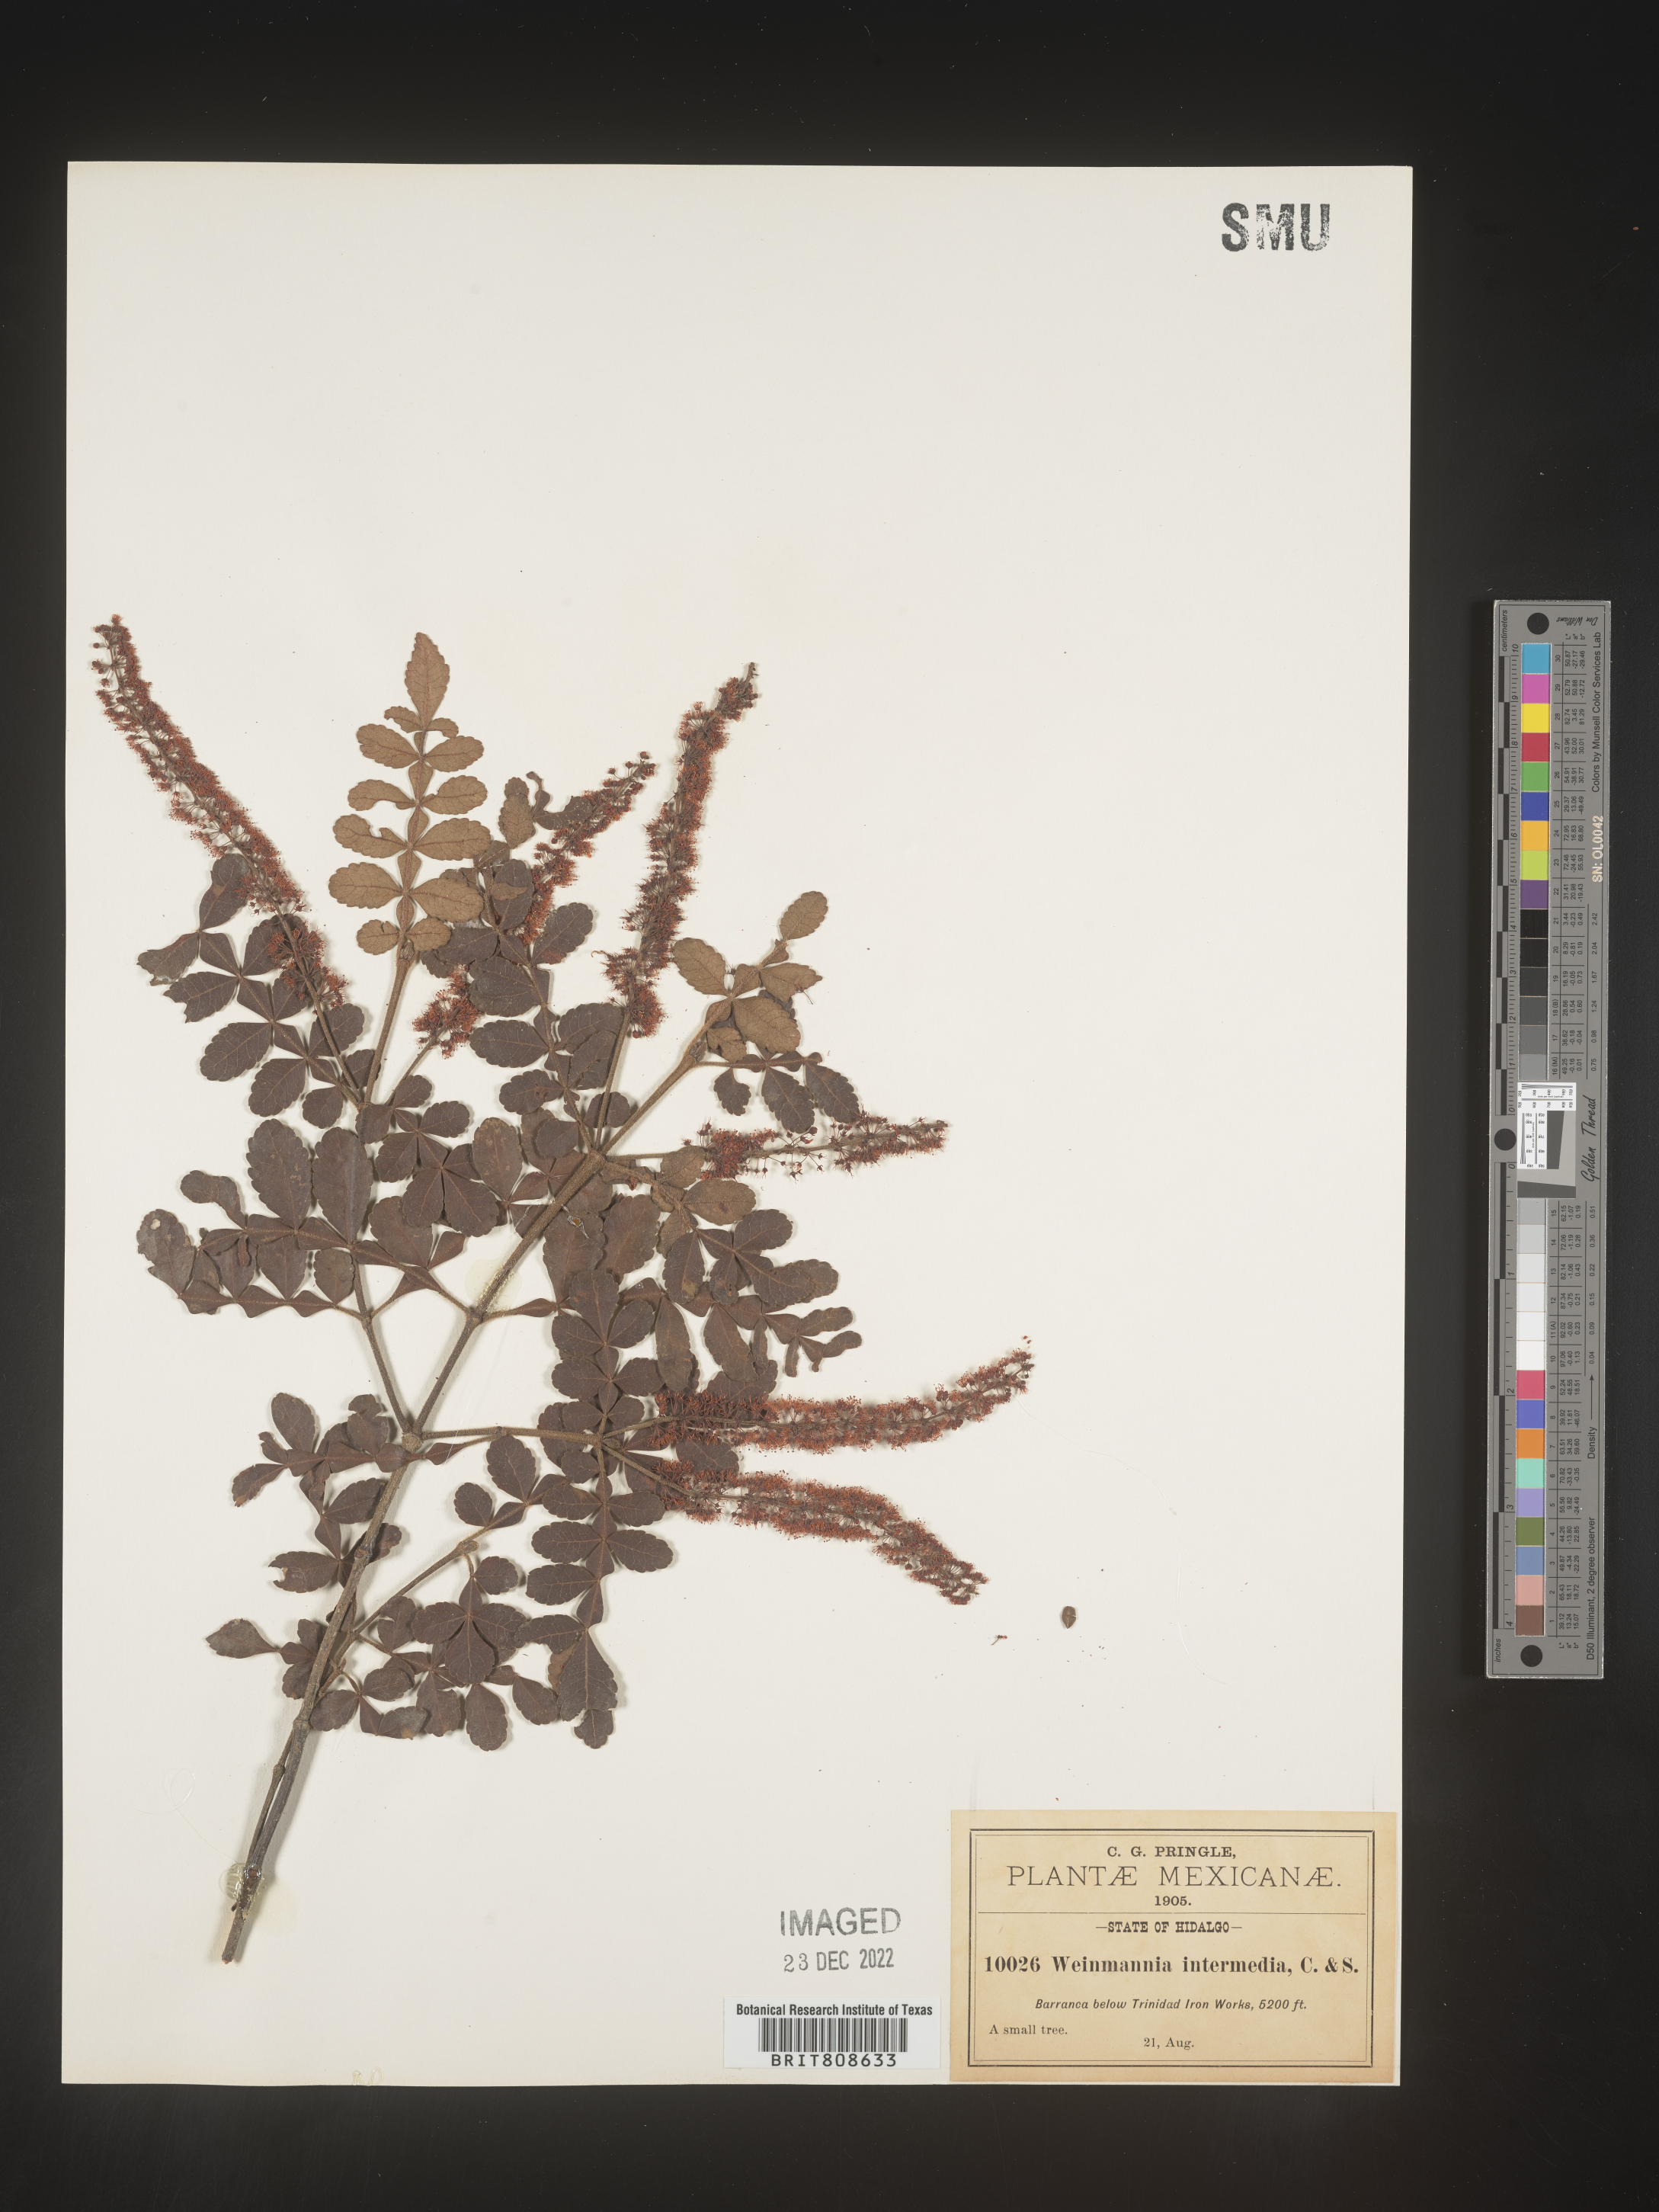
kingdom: Plantae
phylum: Tracheophyta
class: Magnoliopsida
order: Oxalidales
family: Cunoniaceae
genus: Weinmannia
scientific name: Weinmannia
